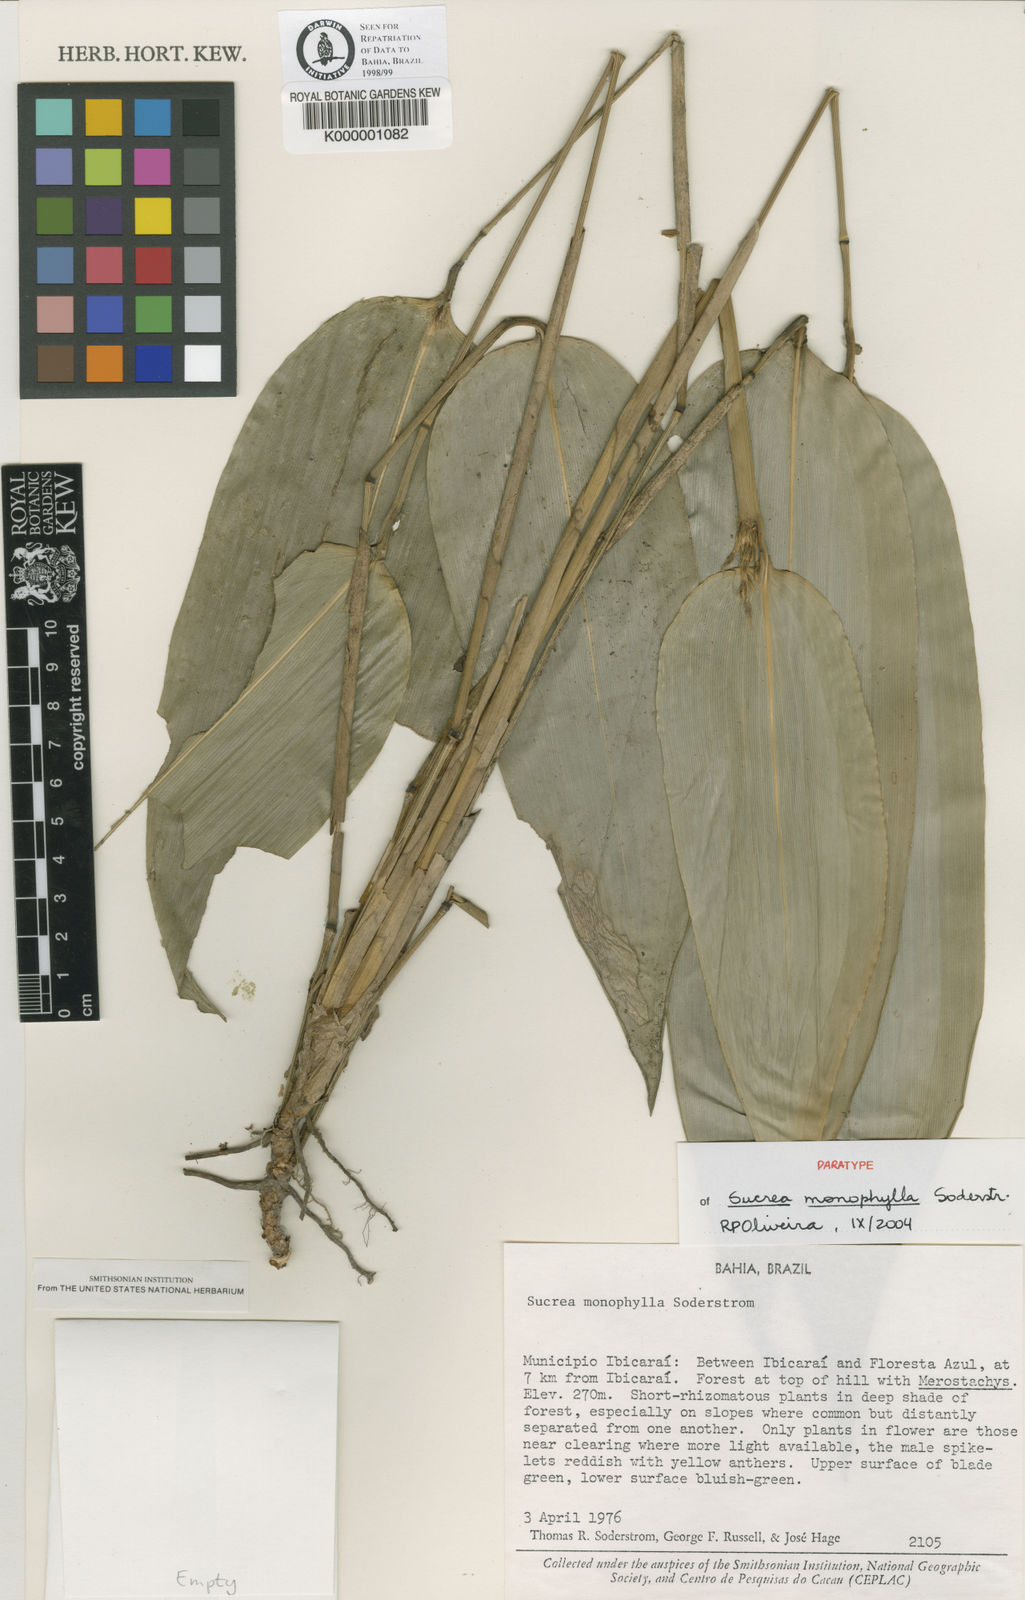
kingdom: Plantae
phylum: Tracheophyta
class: Liliopsida
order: Poales
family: Poaceae
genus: Raddia
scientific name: Raddia monophylla
